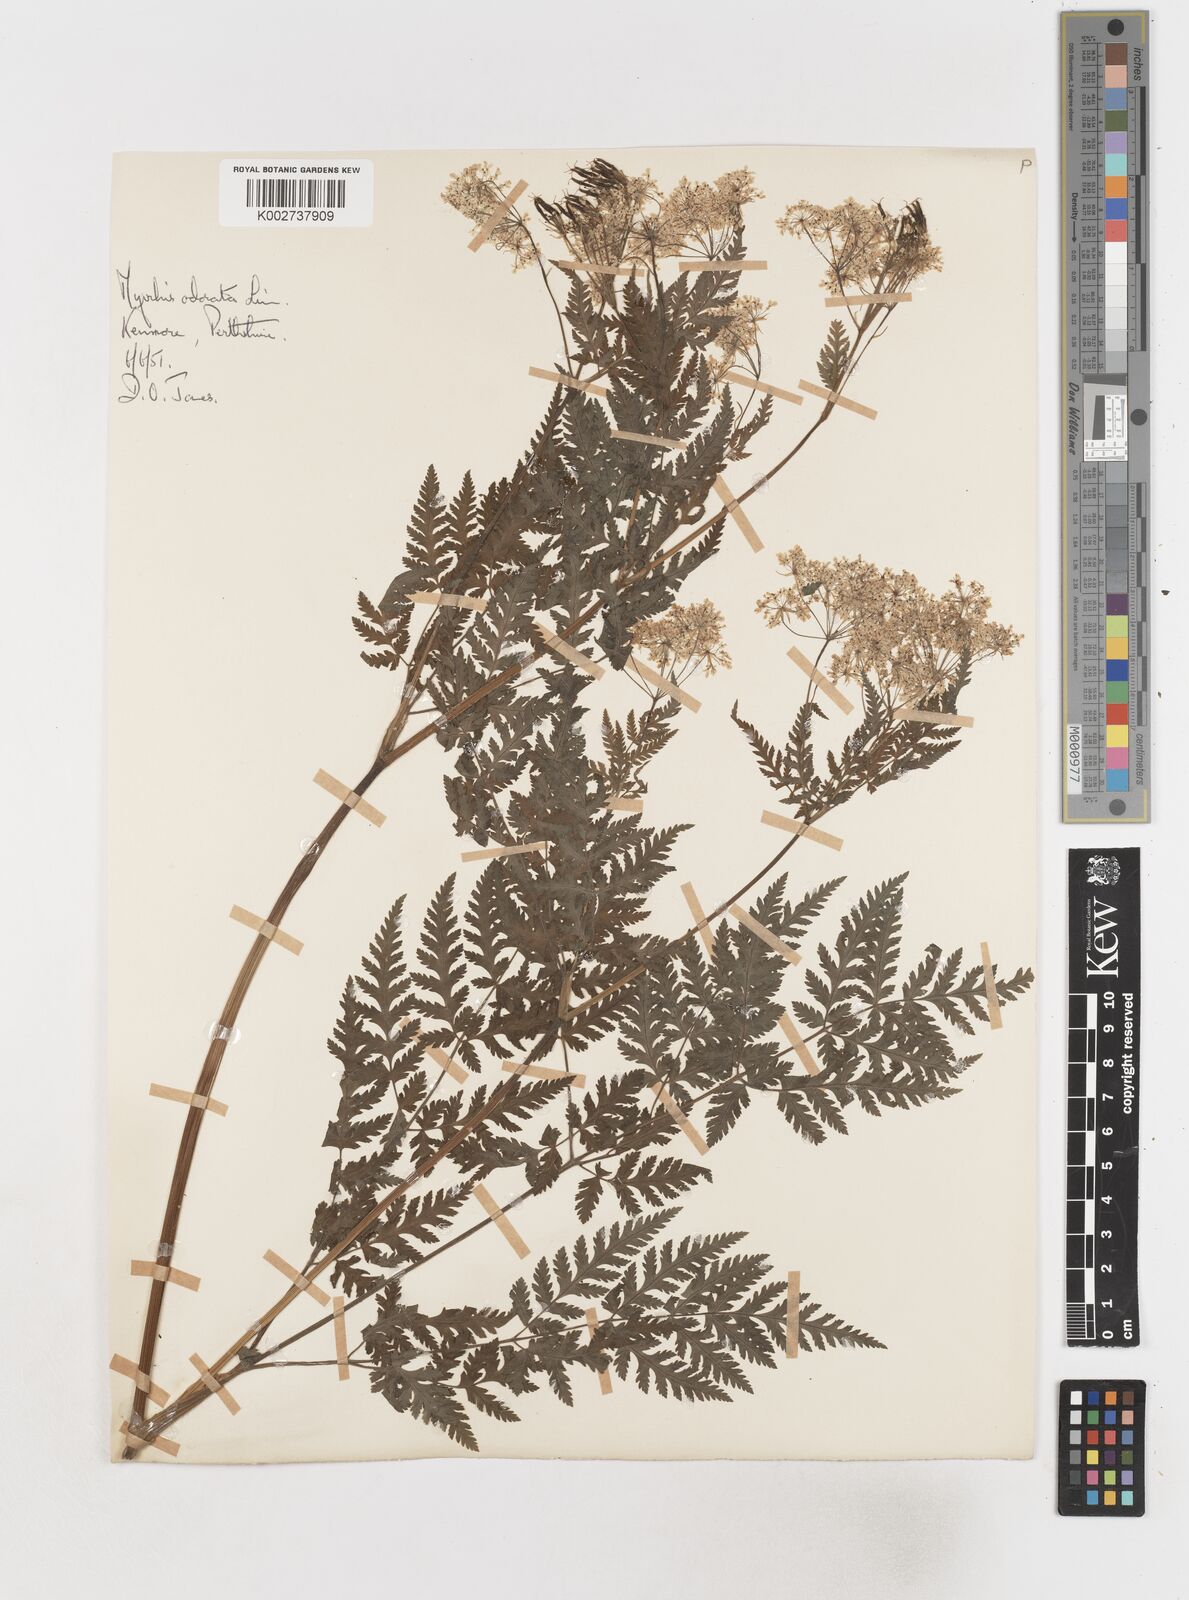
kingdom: Plantae
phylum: Tracheophyta
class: Magnoliopsida
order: Apiales
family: Apiaceae
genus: Myrrhis
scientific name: Myrrhis odorata
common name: Sweet cicely
